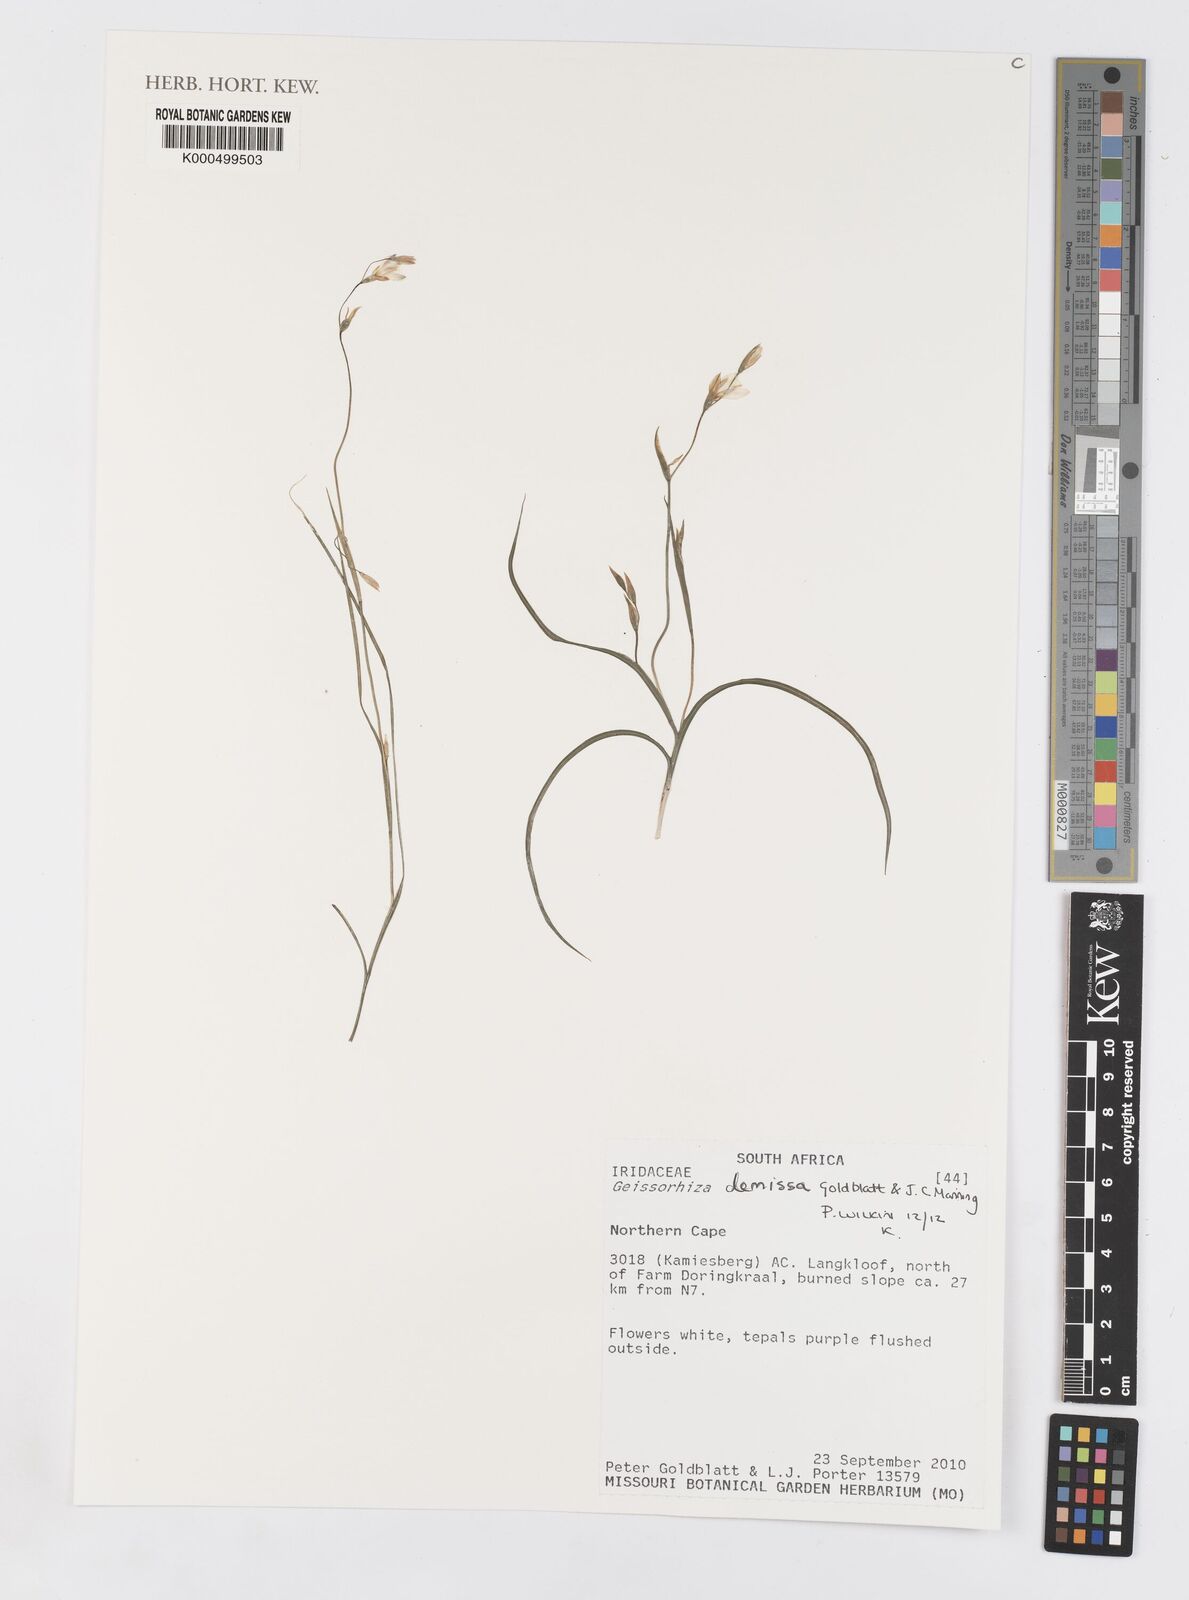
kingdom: Plantae
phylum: Tracheophyta
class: Liliopsida
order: Asparagales
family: Iridaceae
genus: Geissorhiza
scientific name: Geissorhiza demissa
